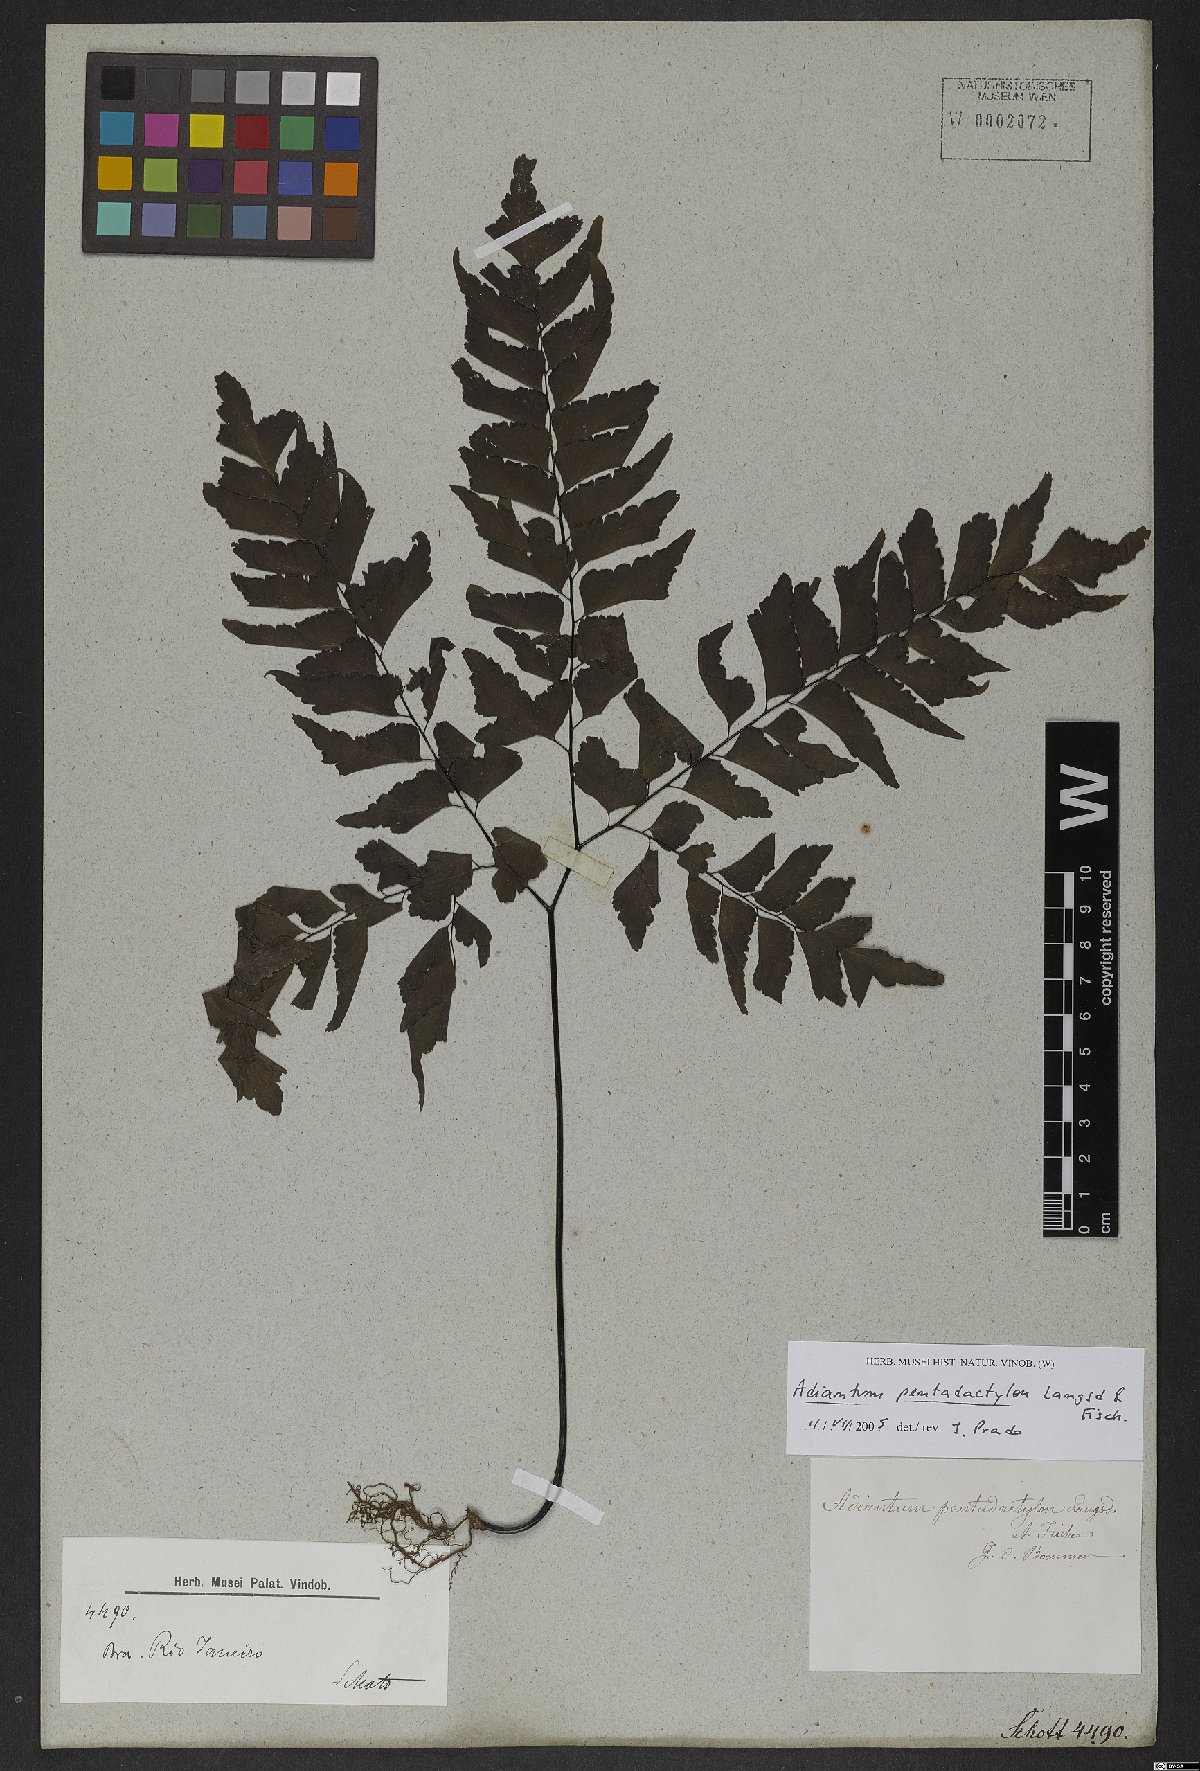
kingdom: Plantae
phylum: Tracheophyta
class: Polypodiopsida
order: Polypodiales
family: Pteridaceae
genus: Adiantum
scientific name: Adiantum pentadactylon
